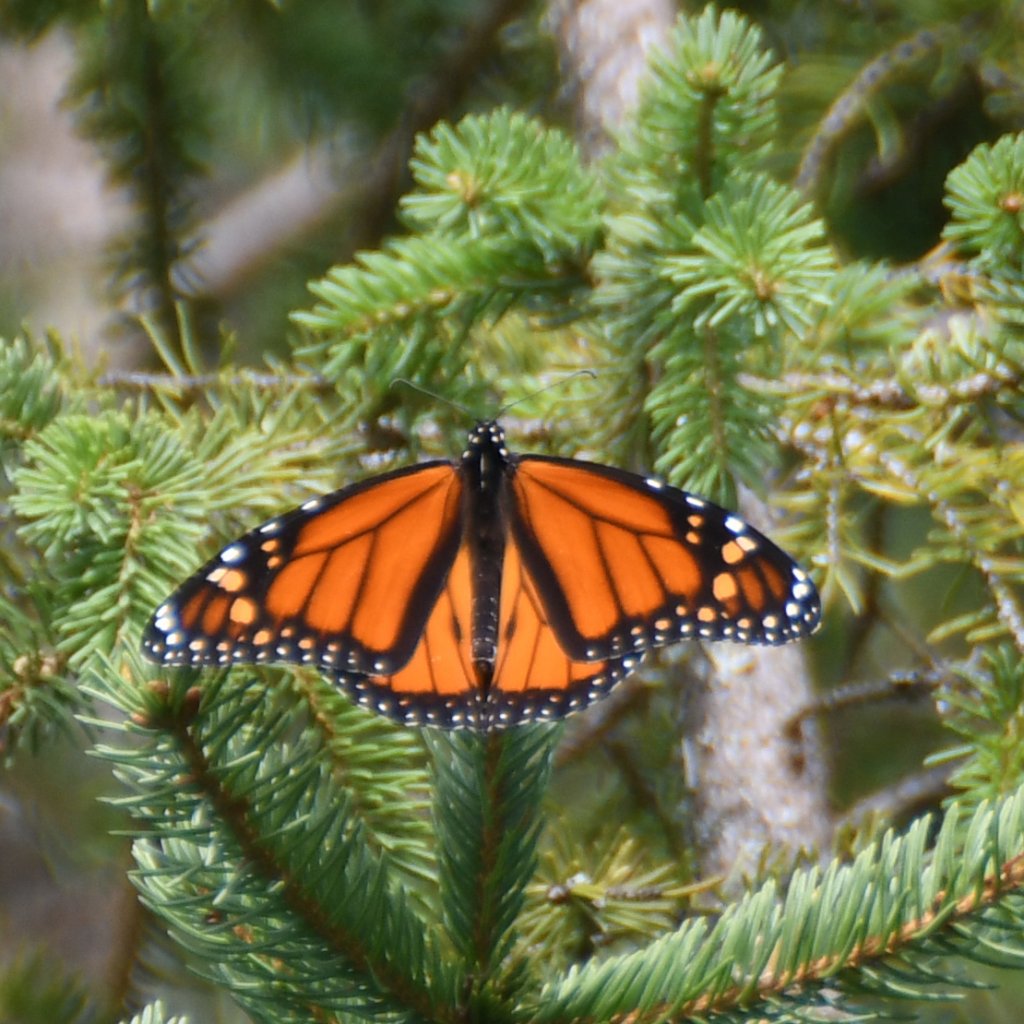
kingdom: Animalia
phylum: Arthropoda
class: Insecta
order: Lepidoptera
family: Nymphalidae
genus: Danaus
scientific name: Danaus plexippus
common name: Monarch
